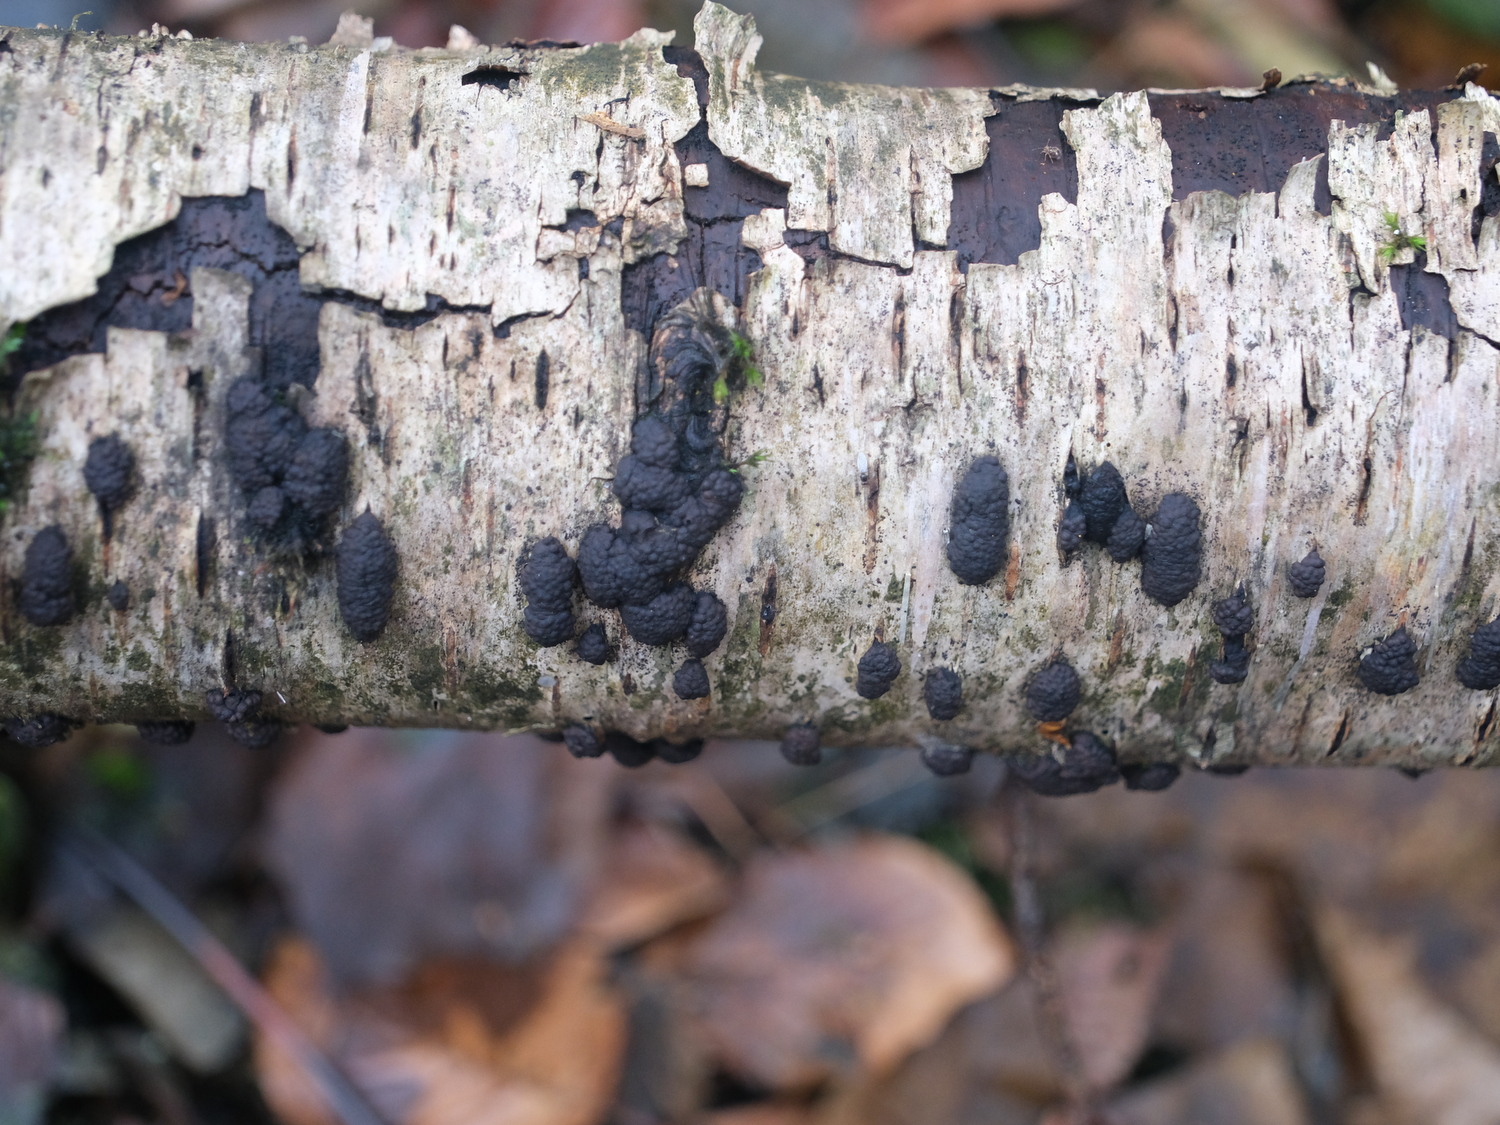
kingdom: Fungi
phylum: Ascomycota
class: Sordariomycetes
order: Xylariales
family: Hypoxylaceae
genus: Jackrogersella
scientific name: Jackrogersella multiformis
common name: foranderlig kulbær
